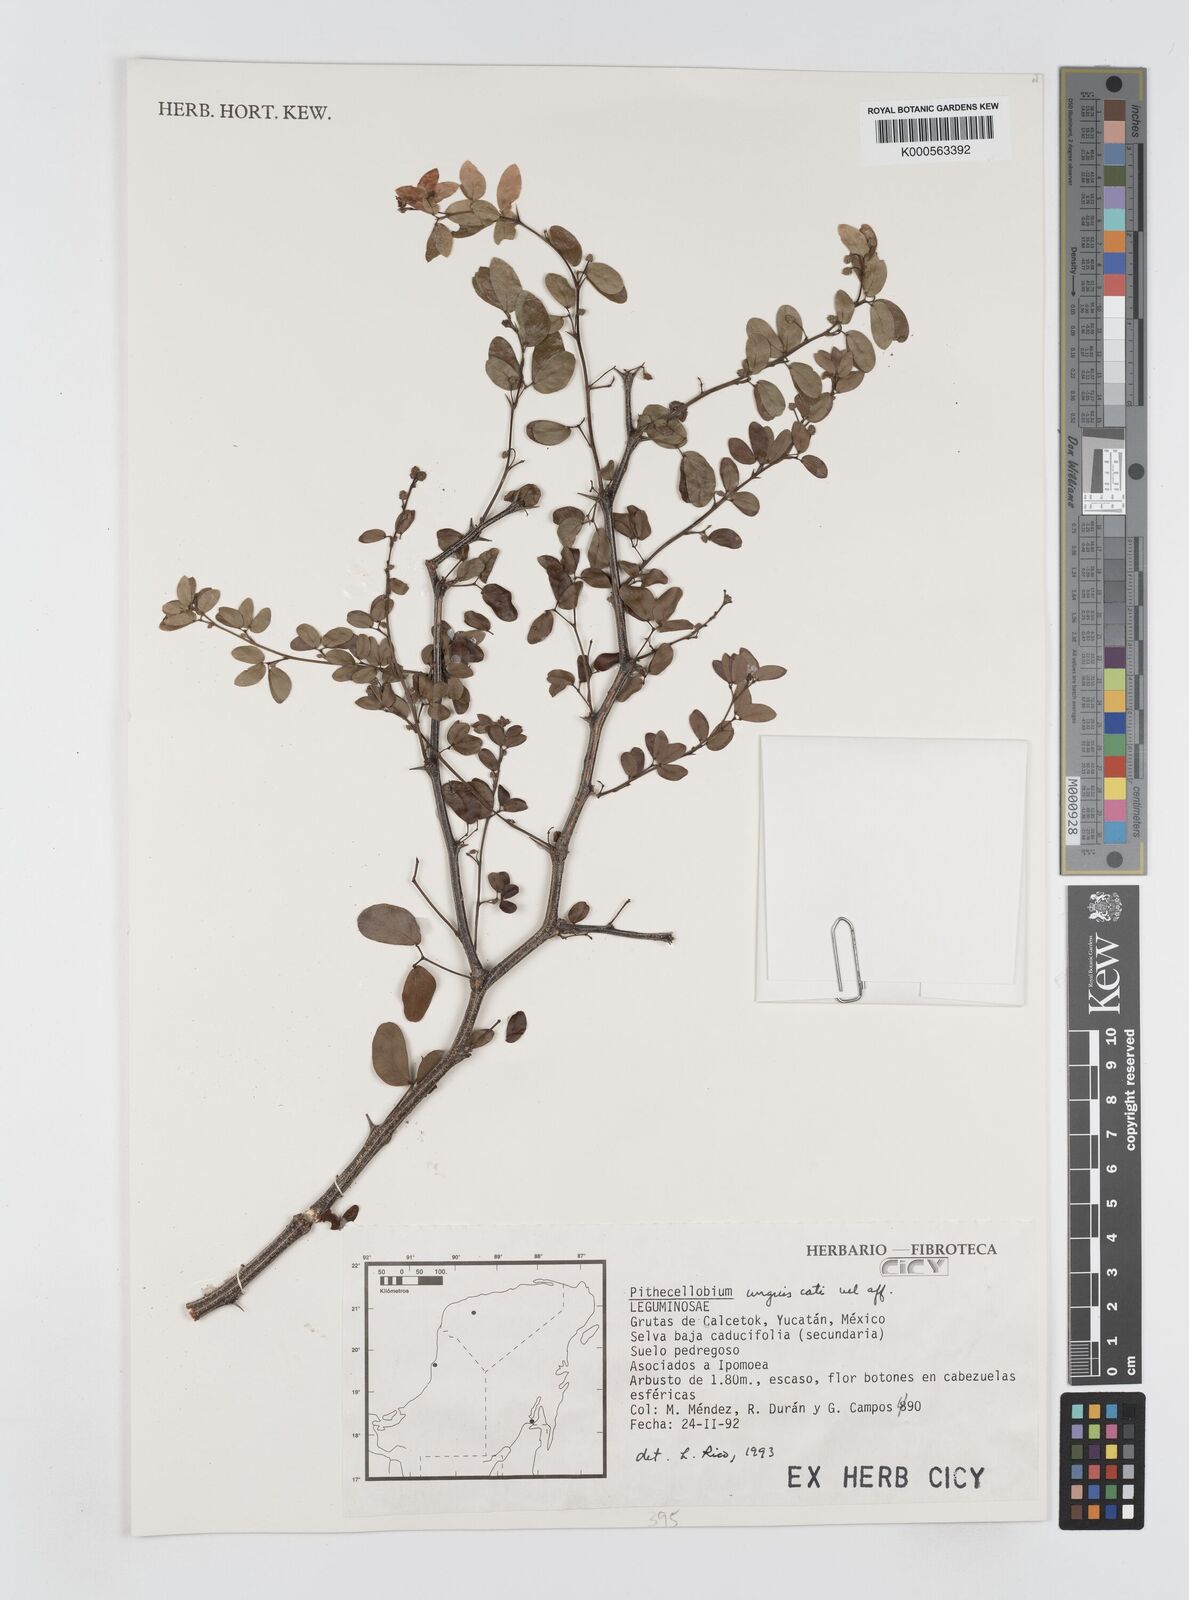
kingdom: Plantae
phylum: Tracheophyta
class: Magnoliopsida
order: Fabales
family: Fabaceae
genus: Pithecellobium
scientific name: Pithecellobium unguis-cati
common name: Cat's-claw
